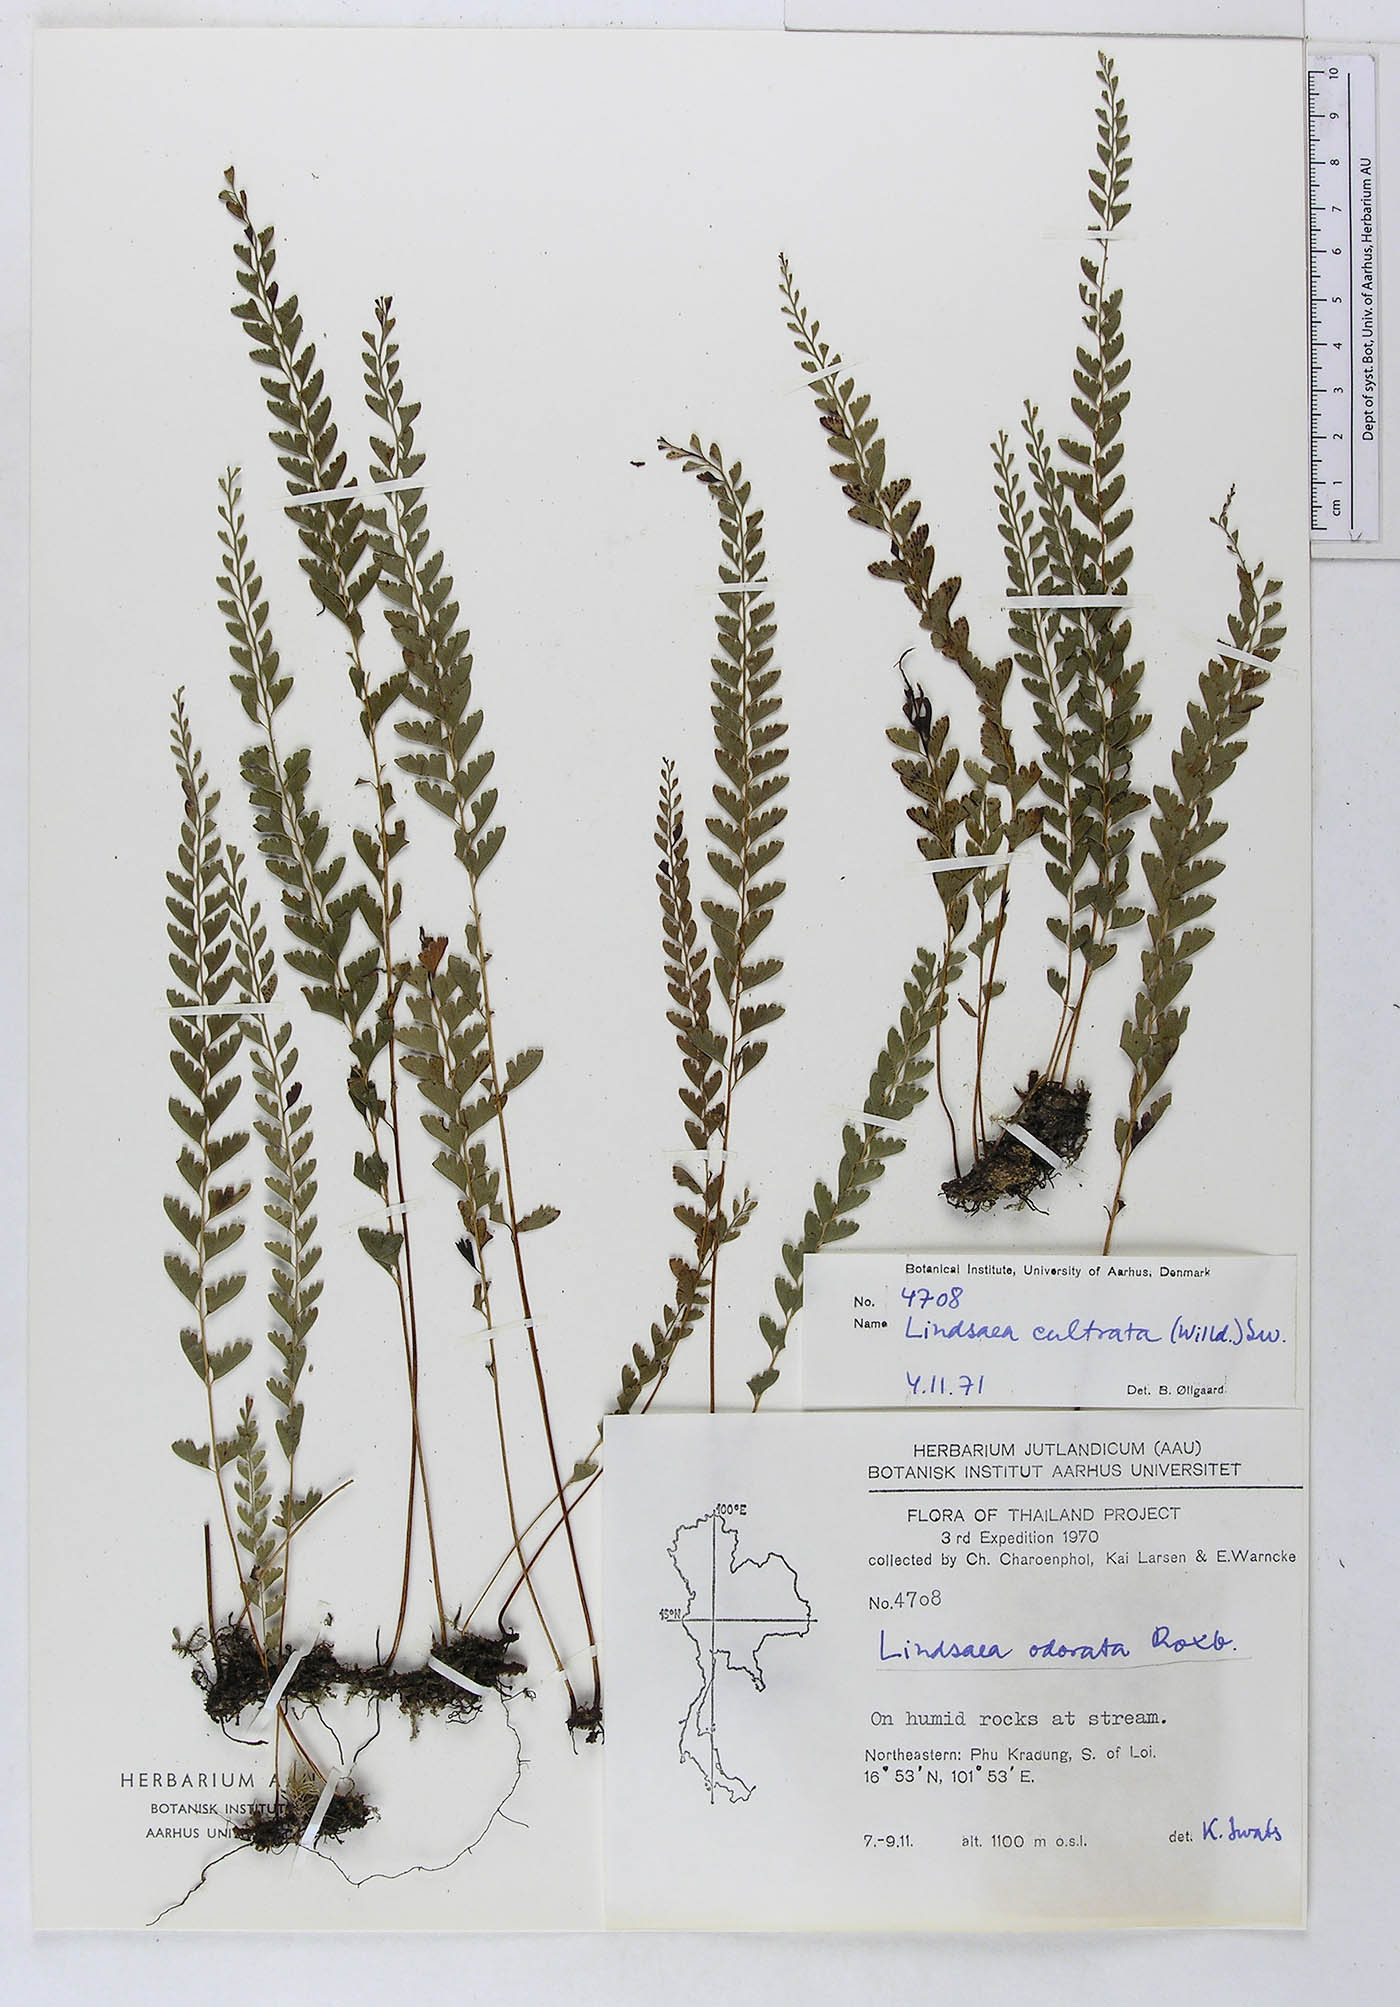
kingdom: Plantae
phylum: Tracheophyta
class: Polypodiopsida
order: Polypodiales
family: Lindsaeaceae
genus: Lindsaea
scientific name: Lindsaea cultrata
